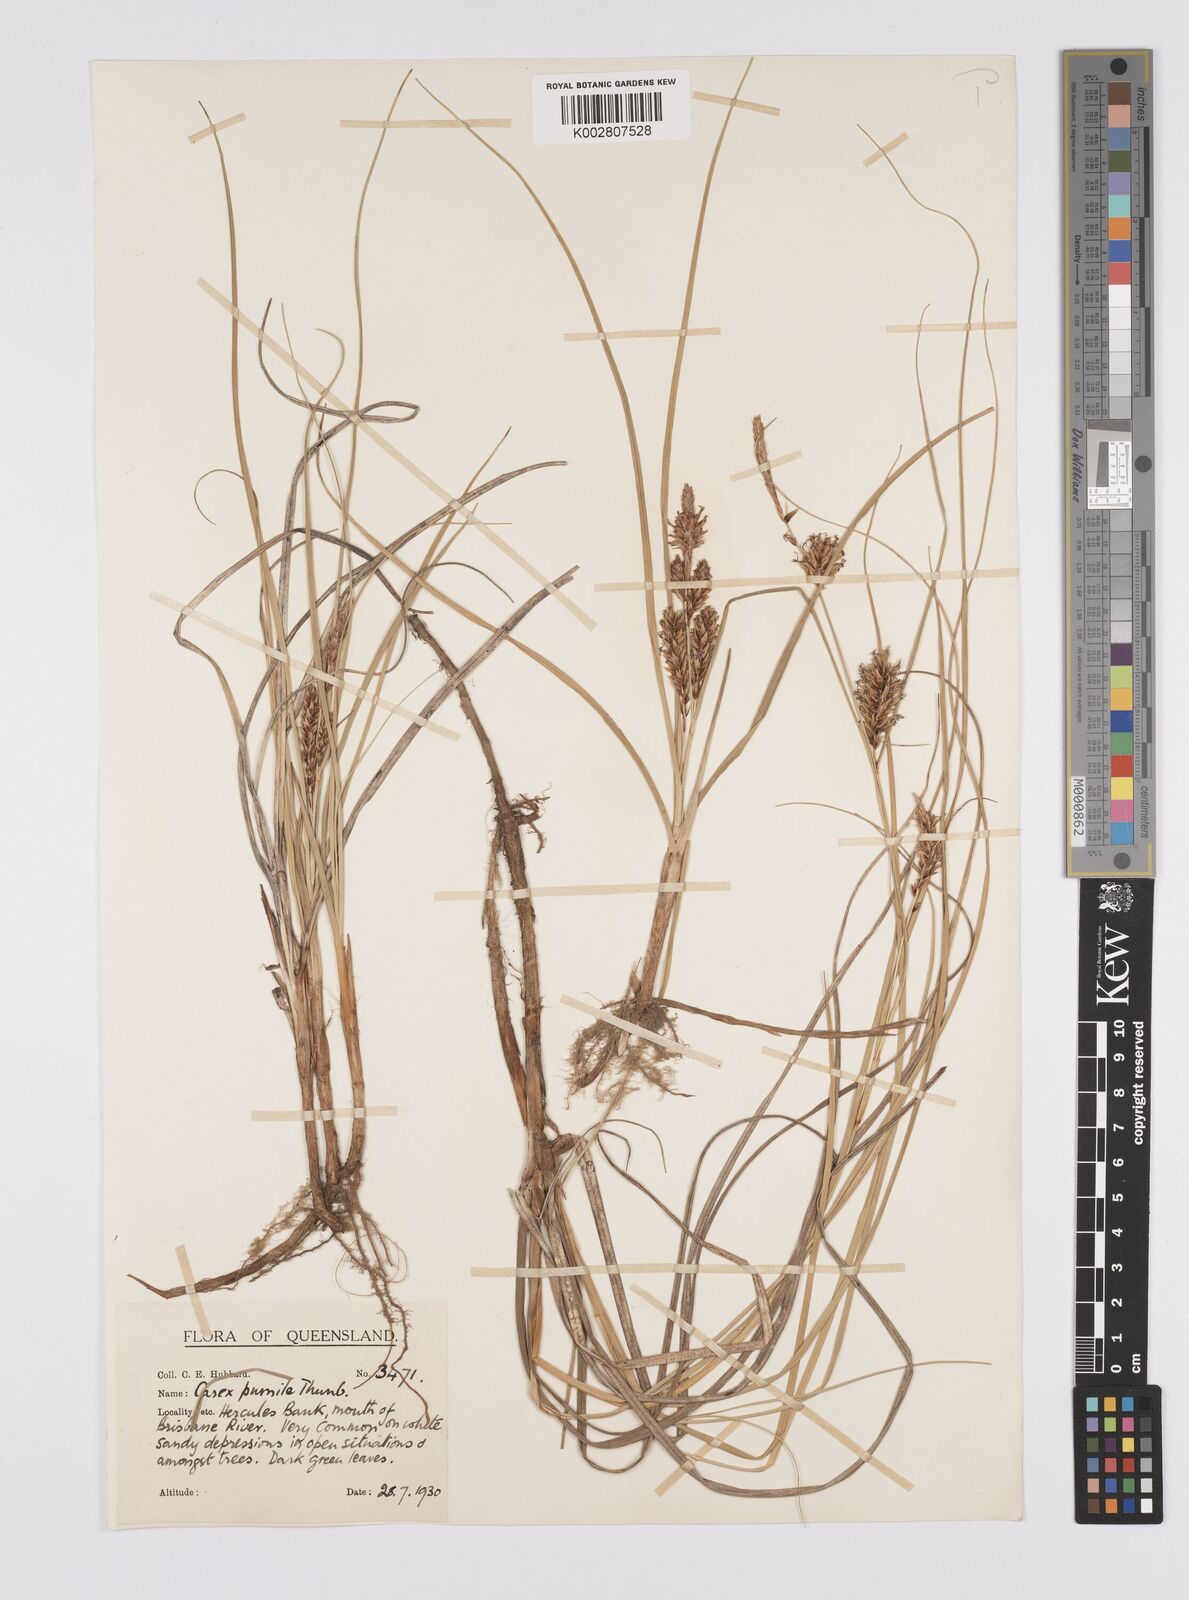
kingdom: Plantae
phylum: Tracheophyta
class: Liliopsida
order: Poales
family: Cyperaceae
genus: Carex
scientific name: Carex pumila
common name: Dwarf sedge
